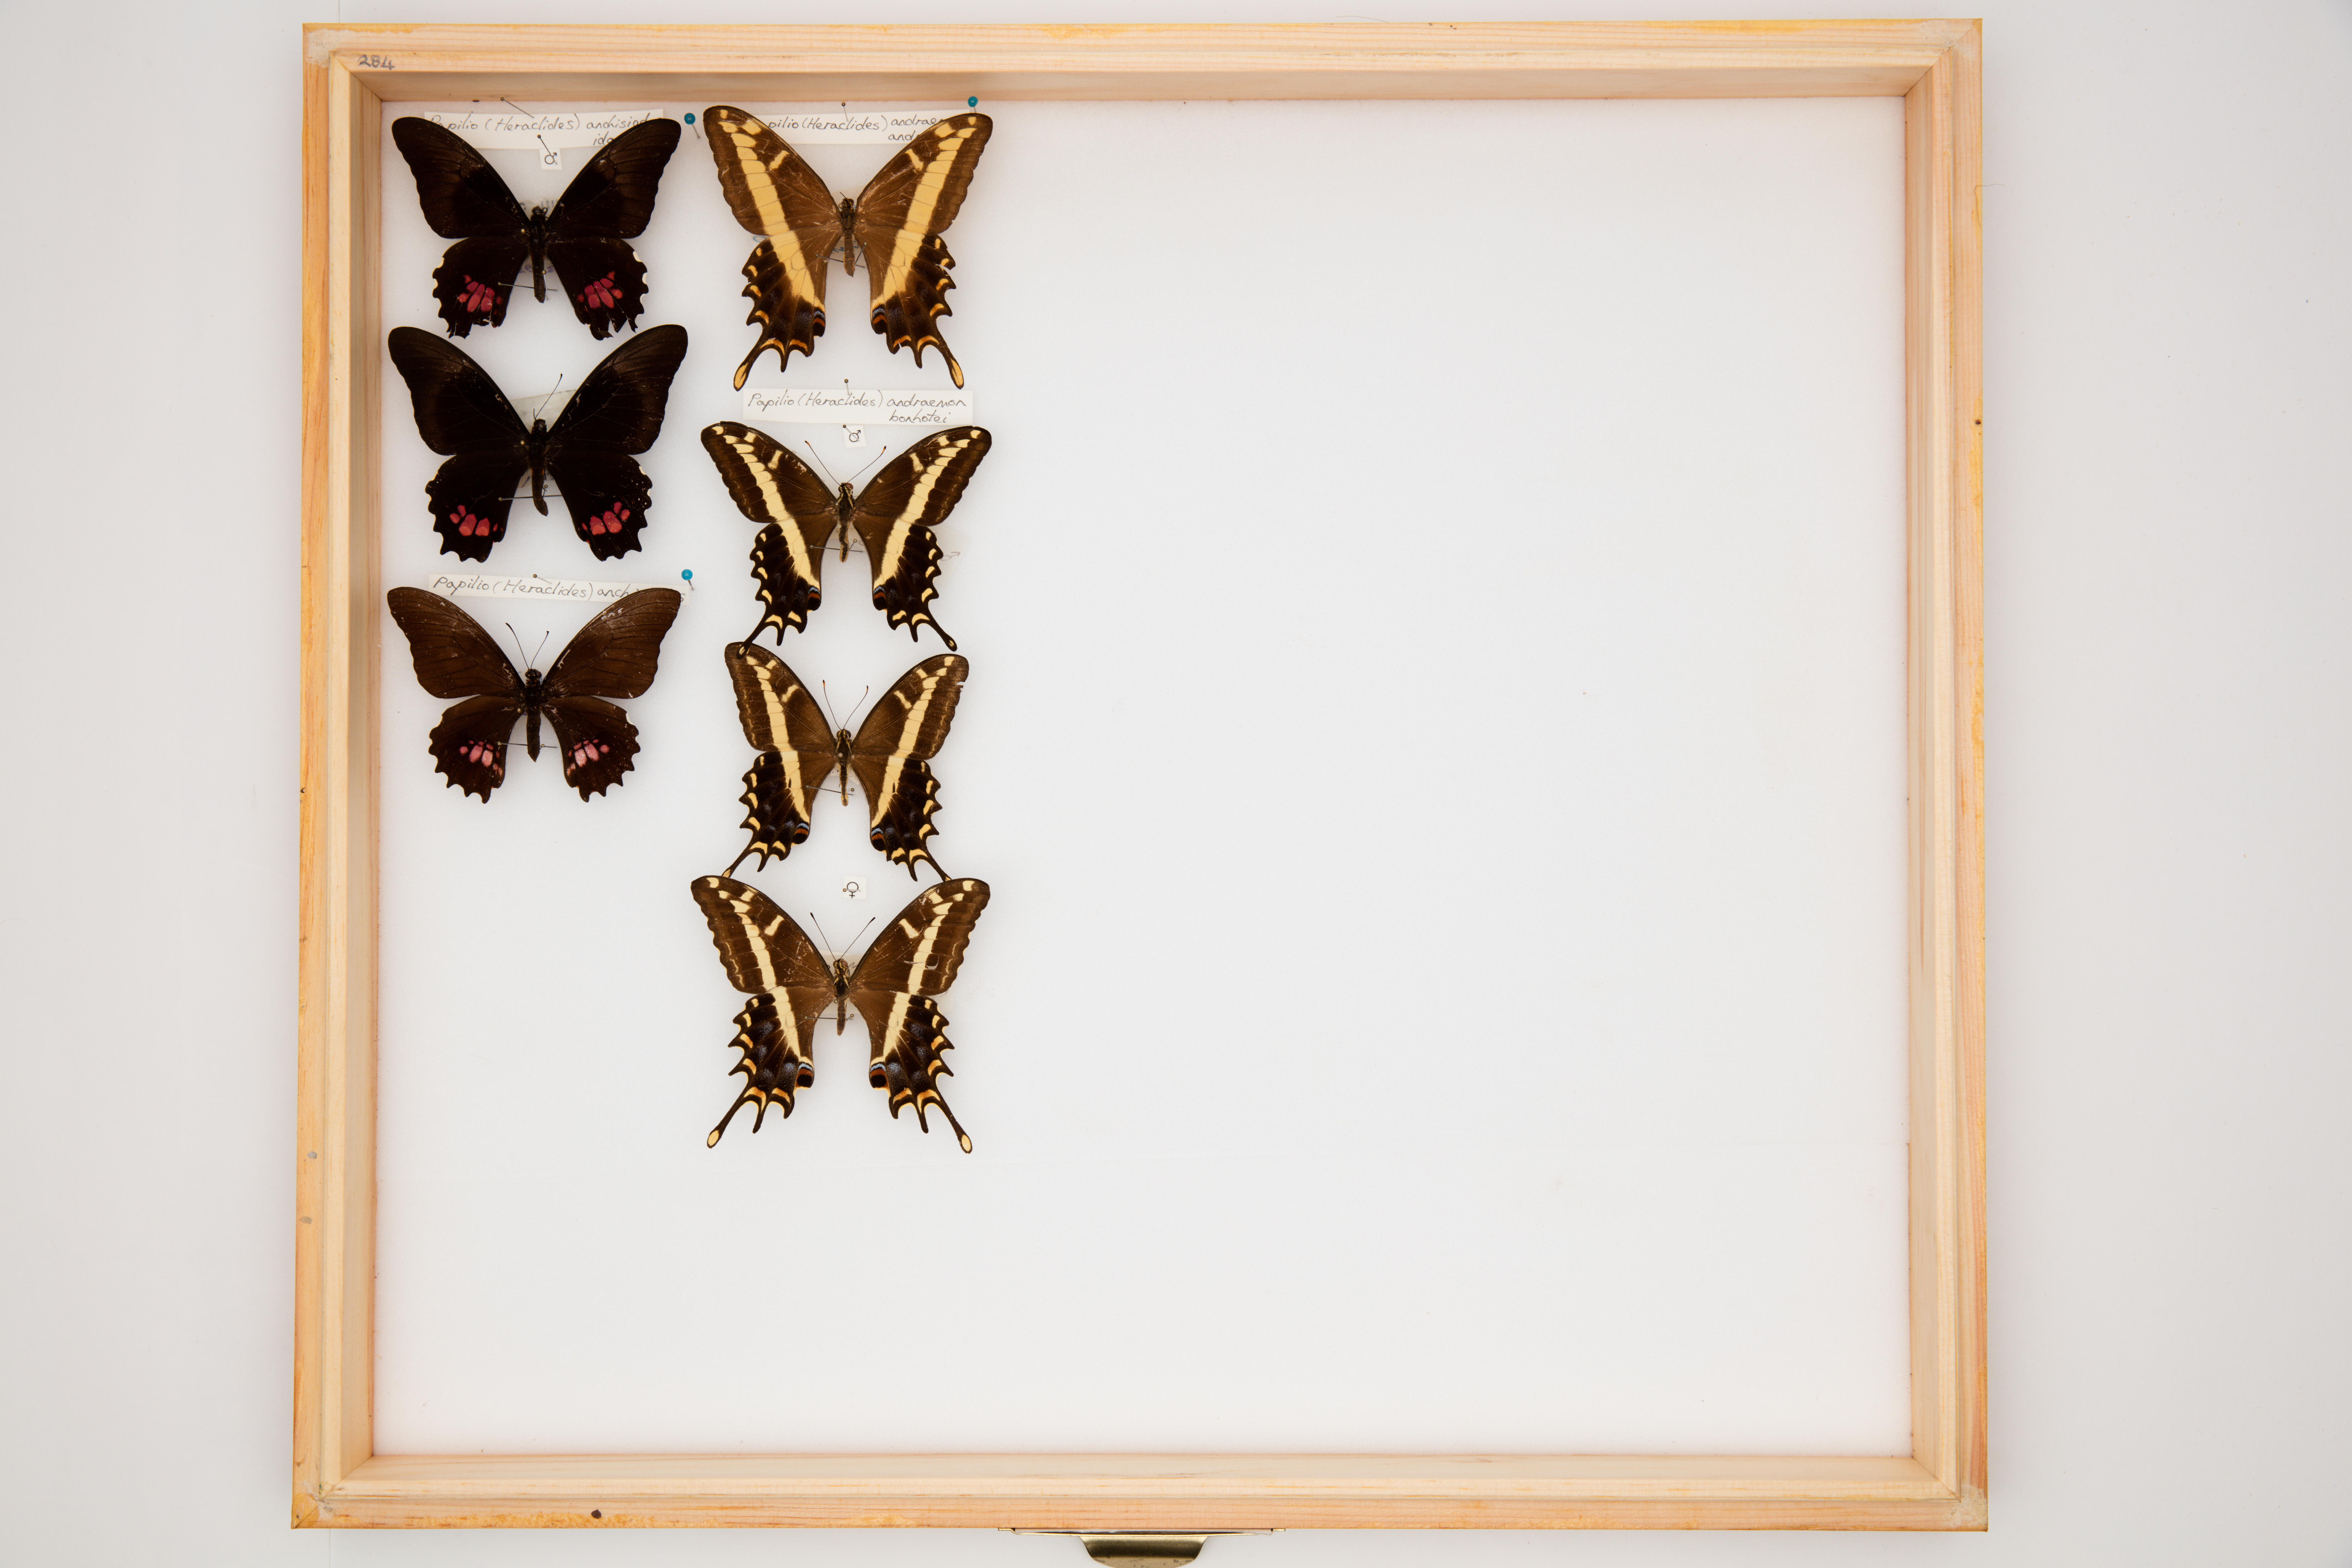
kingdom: Animalia
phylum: Arthropoda
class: Insecta
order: Lepidoptera
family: Papilionidae
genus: Papilio
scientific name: Papilio andraemon
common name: Bahaman swallowtail
